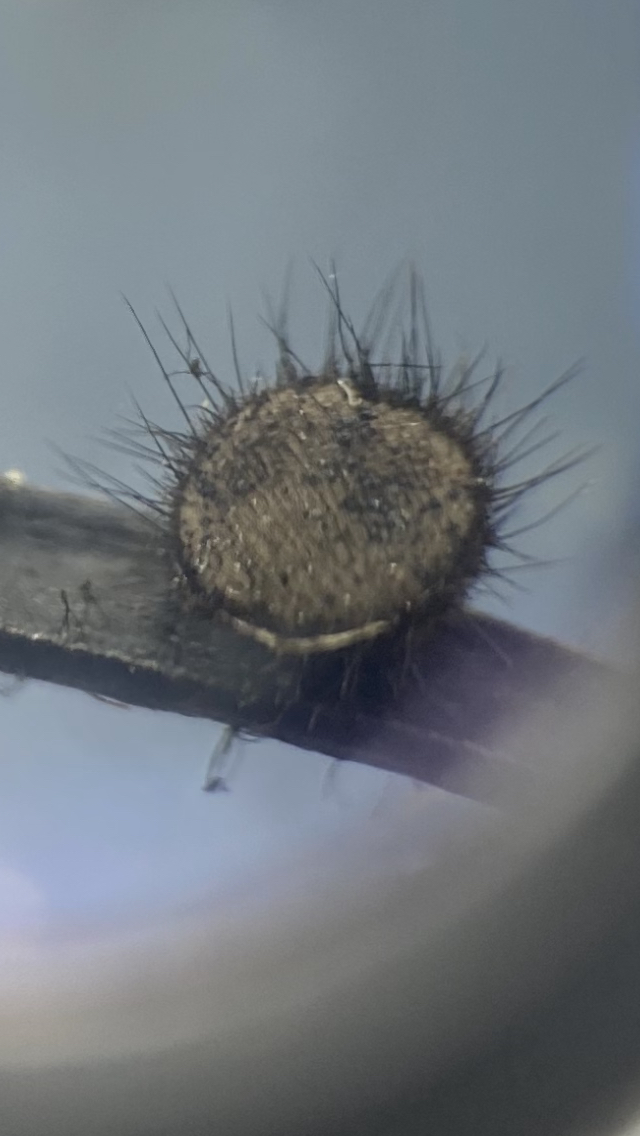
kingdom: Fungi
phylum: Ascomycota
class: Pezizomycetes
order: Pezizales
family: Chorioactidaceae
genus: Desmazierella
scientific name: Desmazierella acicola
